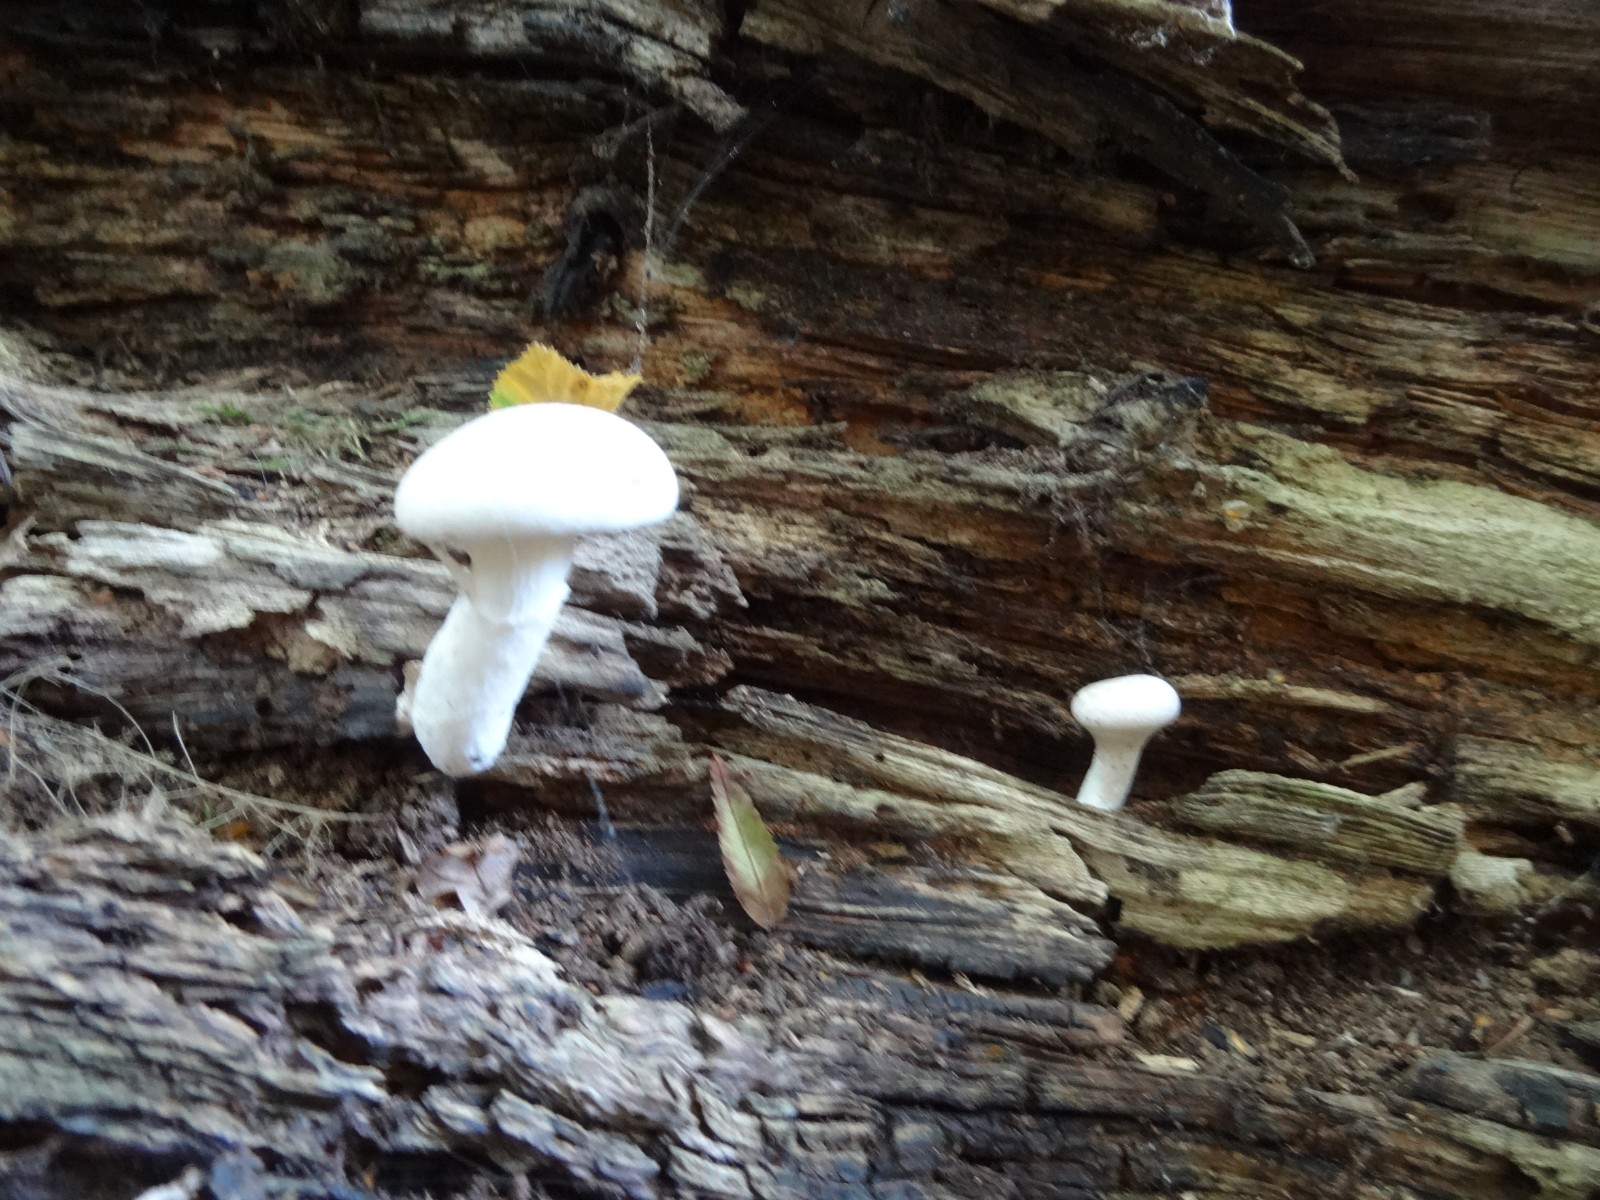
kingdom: Fungi
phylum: Basidiomycota
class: Agaricomycetes
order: Agaricales
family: Pleurotaceae
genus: Pleurotus
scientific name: Pleurotus dryinus
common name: korkagtig østershat
